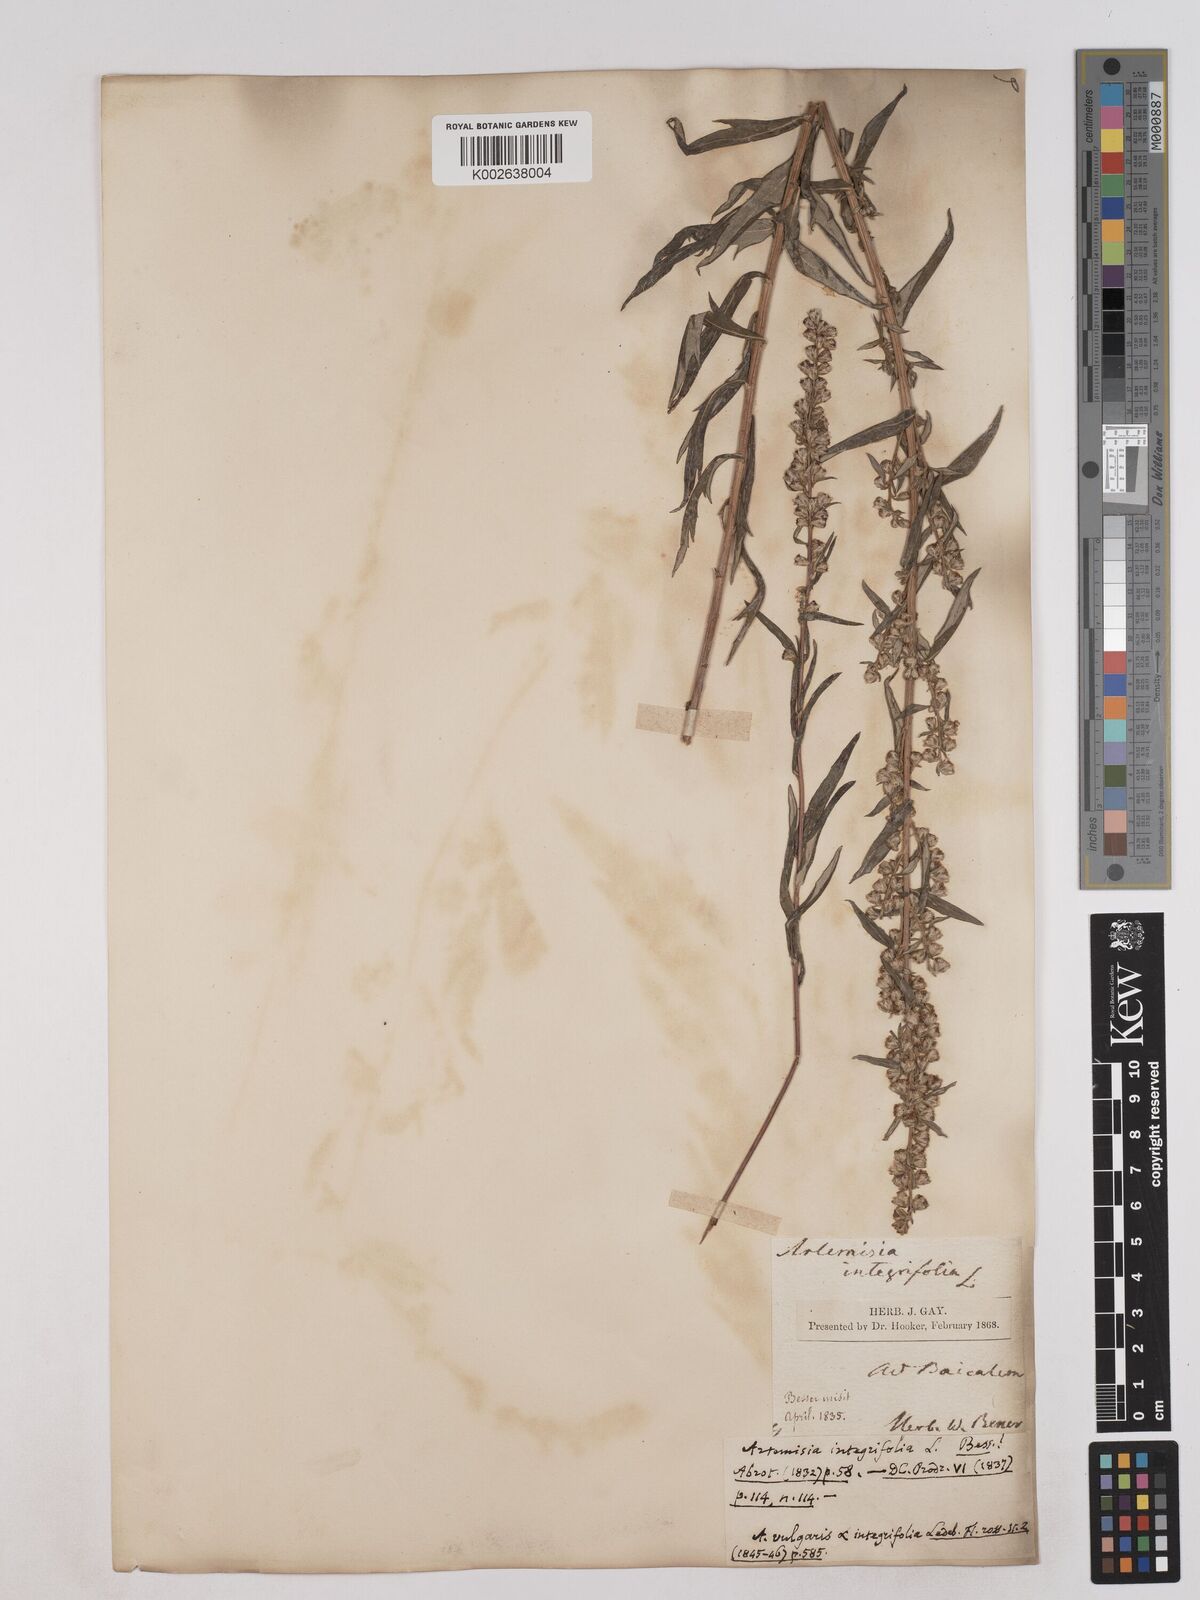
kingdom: Plantae
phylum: Tracheophyta
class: Magnoliopsida
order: Asterales
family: Asteraceae
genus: Artemisia
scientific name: Artemisia integrifolia
